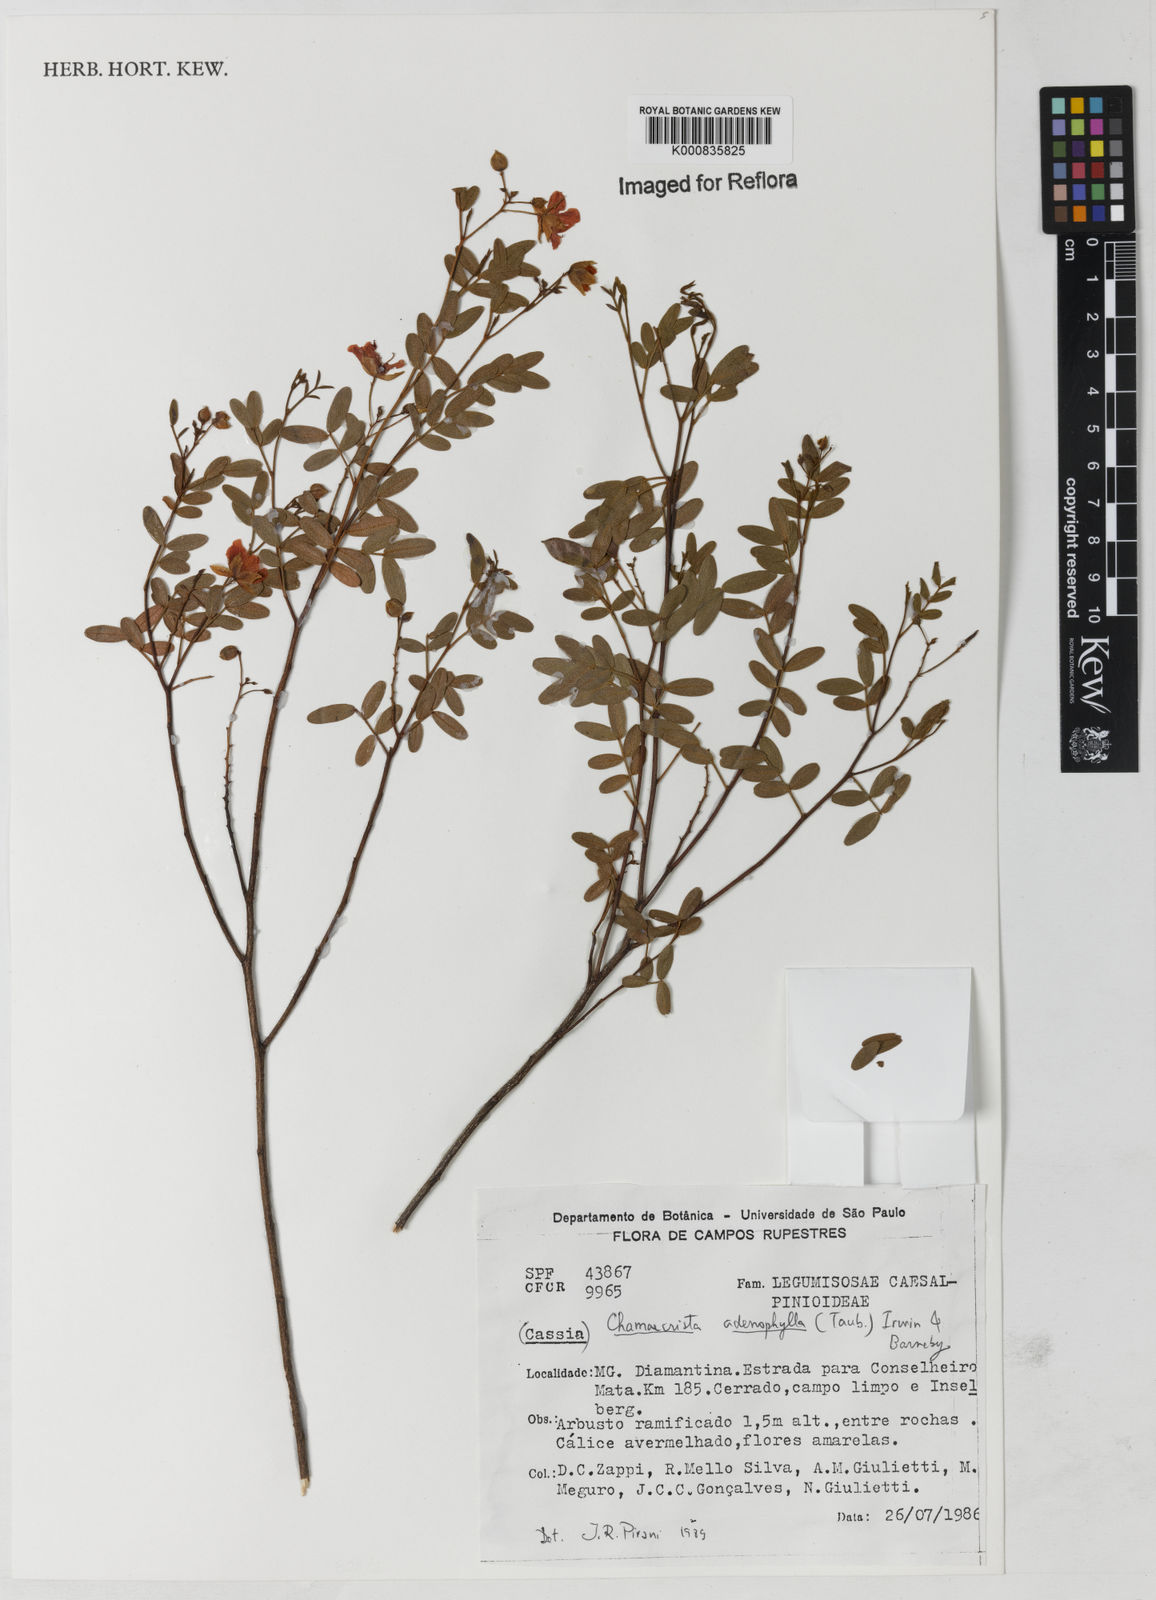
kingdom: Plantae
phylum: Tracheophyta
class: Magnoliopsida
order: Fabales
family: Fabaceae
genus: Chamaecrista
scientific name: Chamaecrista adenophylla
